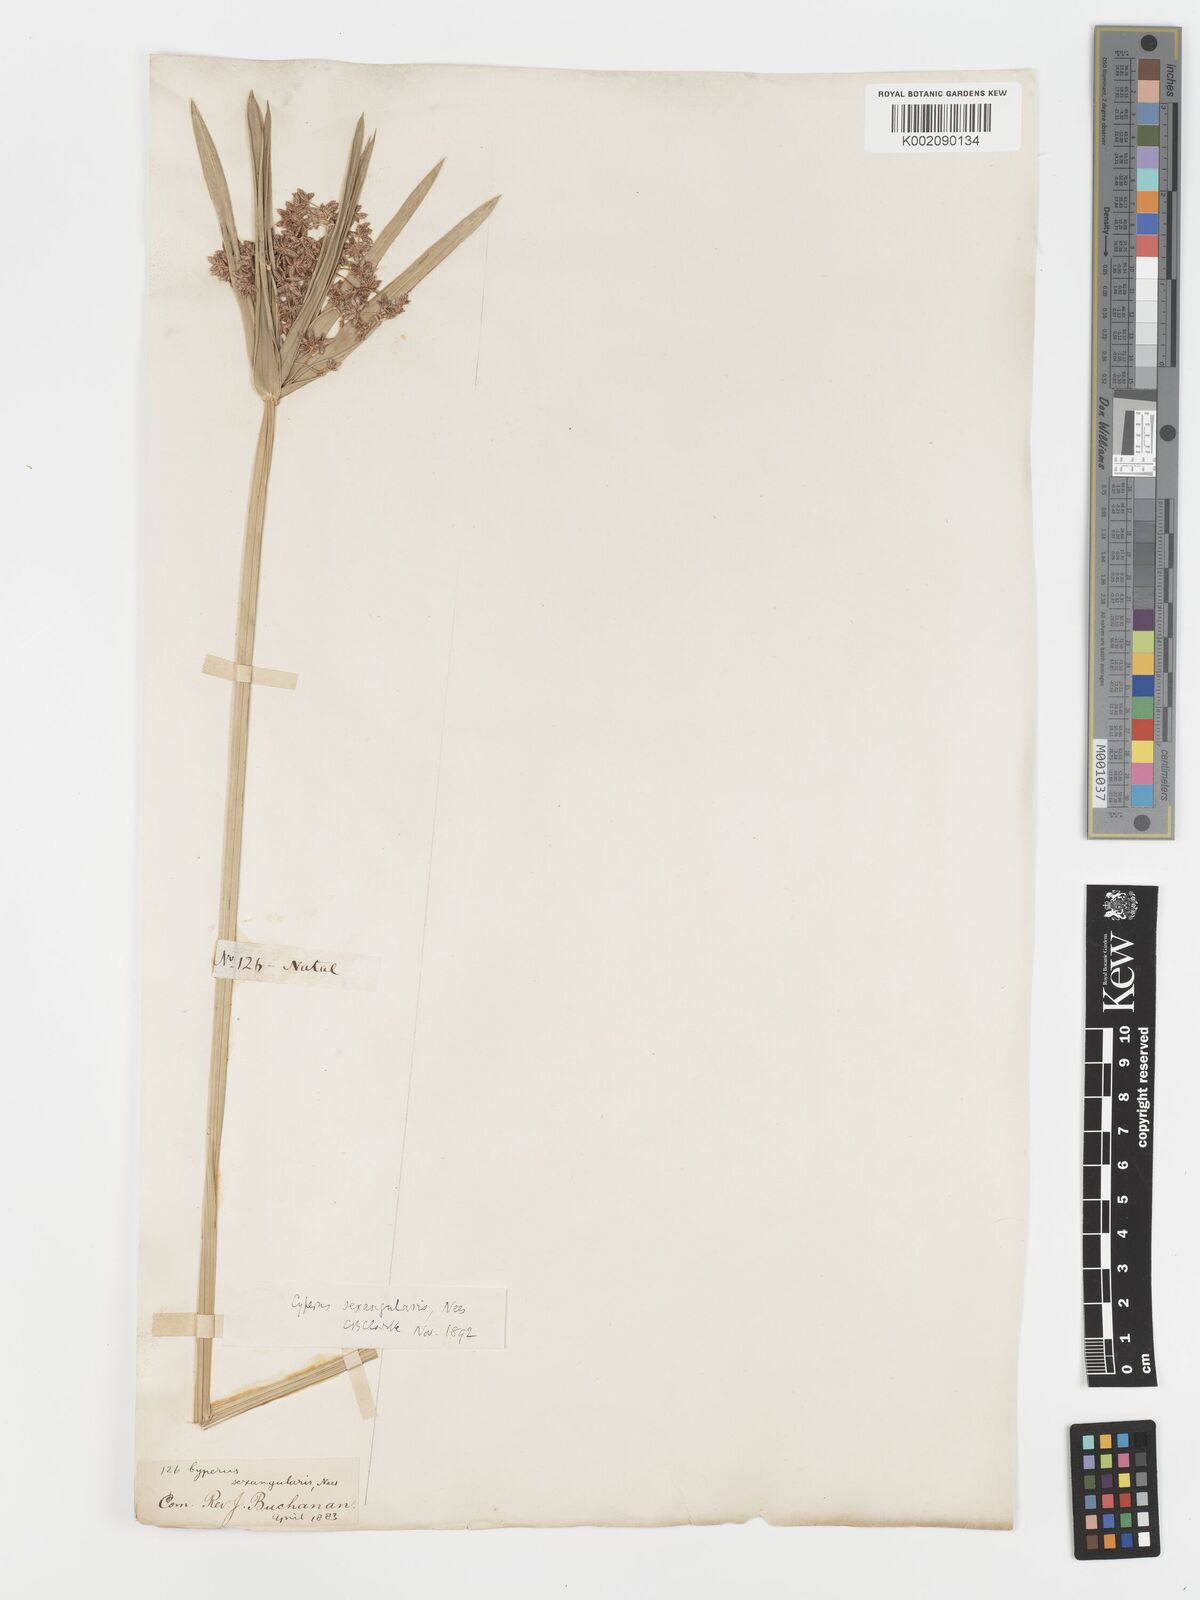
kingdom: Plantae
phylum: Tracheophyta
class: Liliopsida
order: Poales
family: Cyperaceae
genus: Cyperus
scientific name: Cyperus sexangularis
